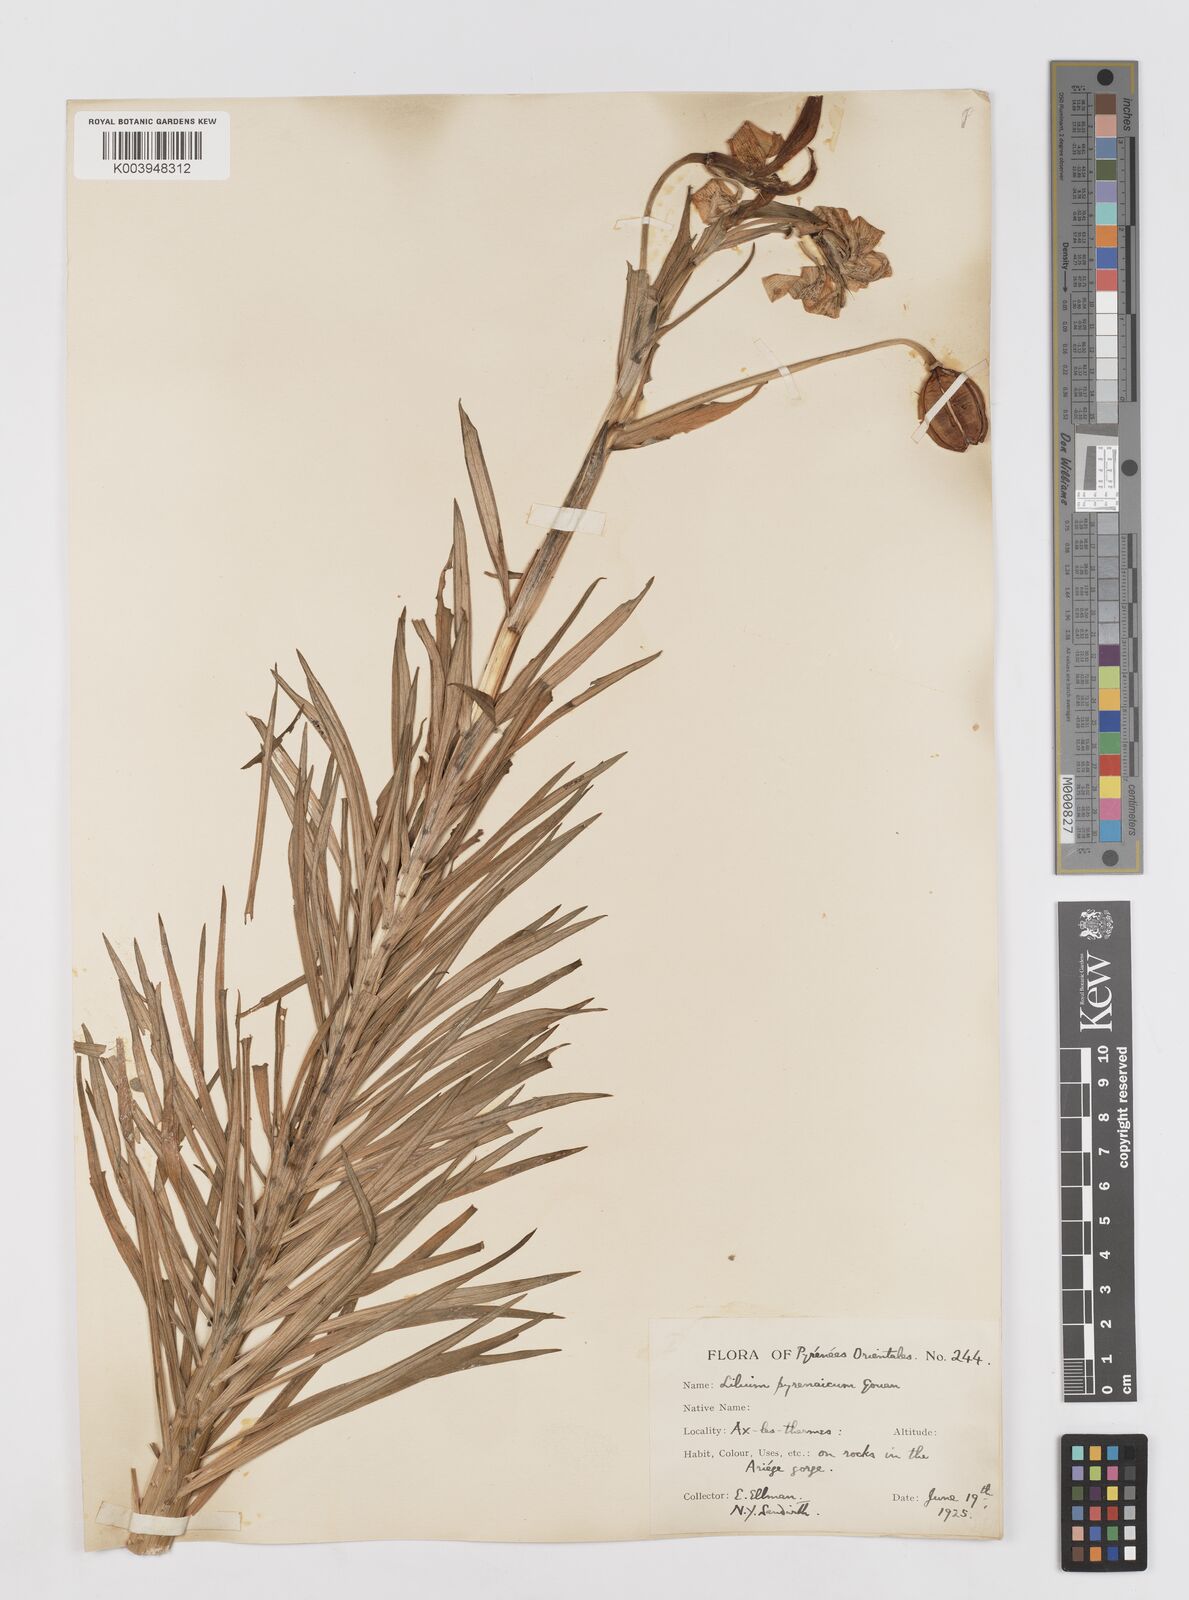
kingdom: Plantae
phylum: Tracheophyta
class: Liliopsida
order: Liliales
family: Liliaceae
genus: Lilium
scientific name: Lilium pyrenaicum
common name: Pyrenean lily
